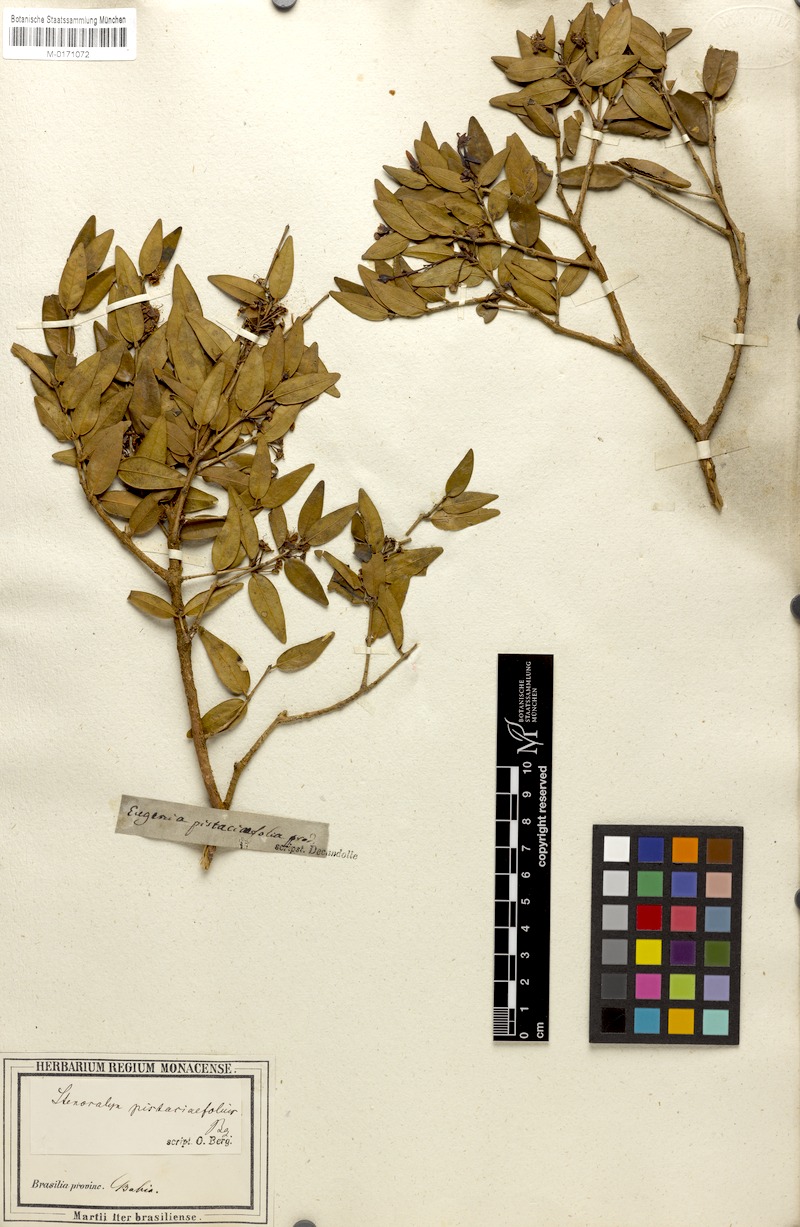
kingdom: Plantae
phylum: Tracheophyta
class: Magnoliopsida
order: Myrtales
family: Myrtaceae
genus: Eugenia
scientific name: Eugenia pistaciifolia
